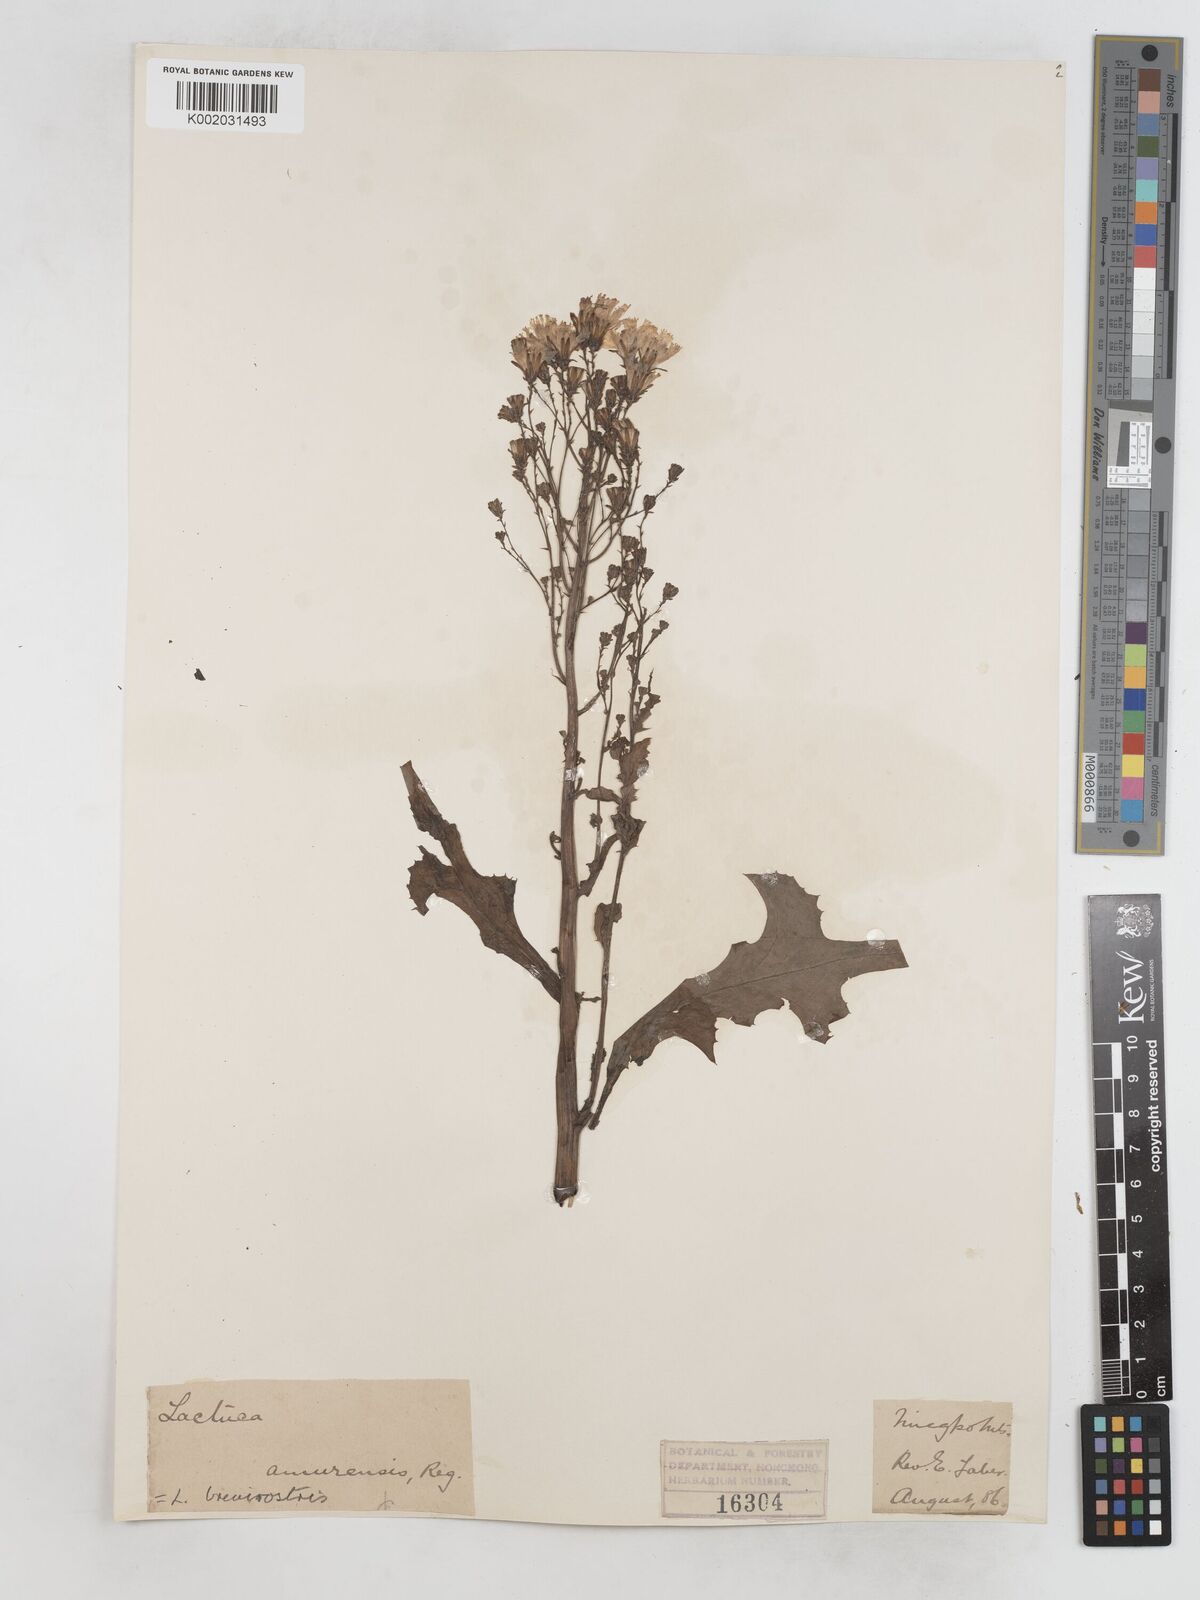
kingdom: Plantae
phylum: Tracheophyta
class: Magnoliopsida
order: Asterales
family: Asteraceae
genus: Lactuca
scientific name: Lactuca indica
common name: Wild lettuce
